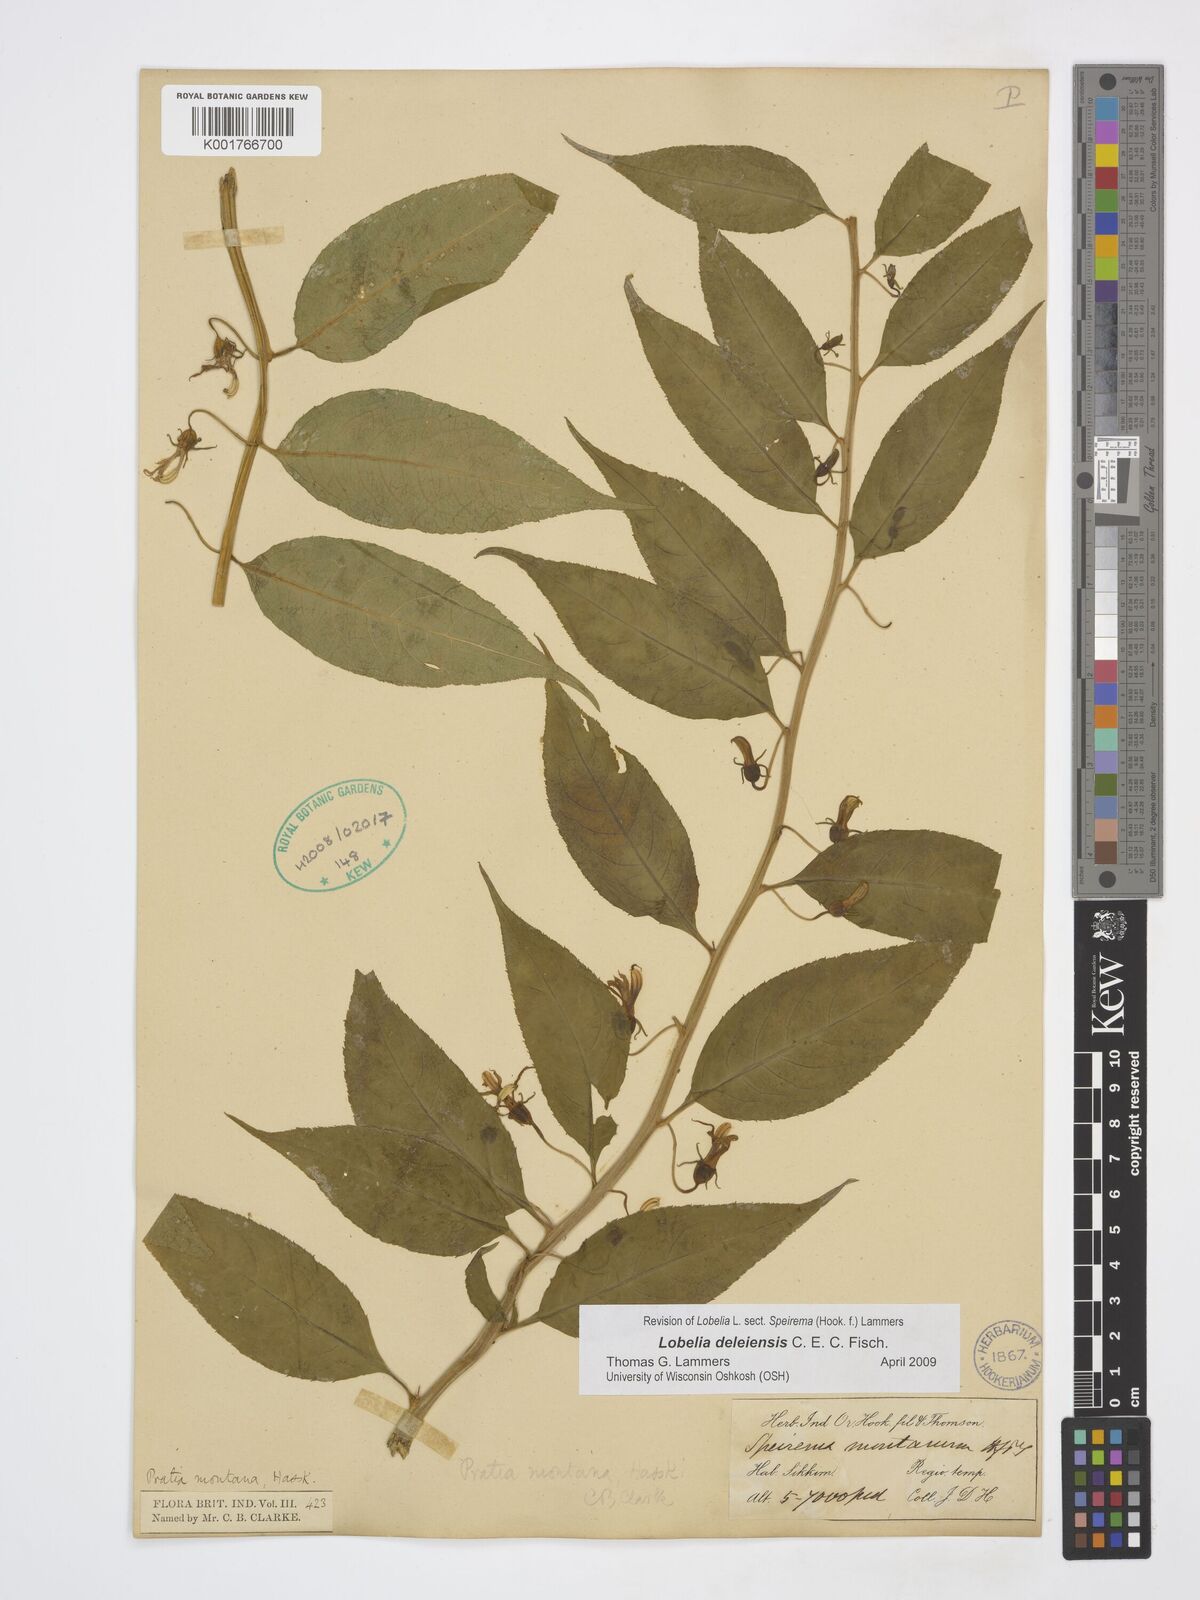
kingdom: Plantae
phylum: Tracheophyta
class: Magnoliopsida
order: Asterales
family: Campanulaceae
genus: Lobelia
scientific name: Lobelia deleiensis
